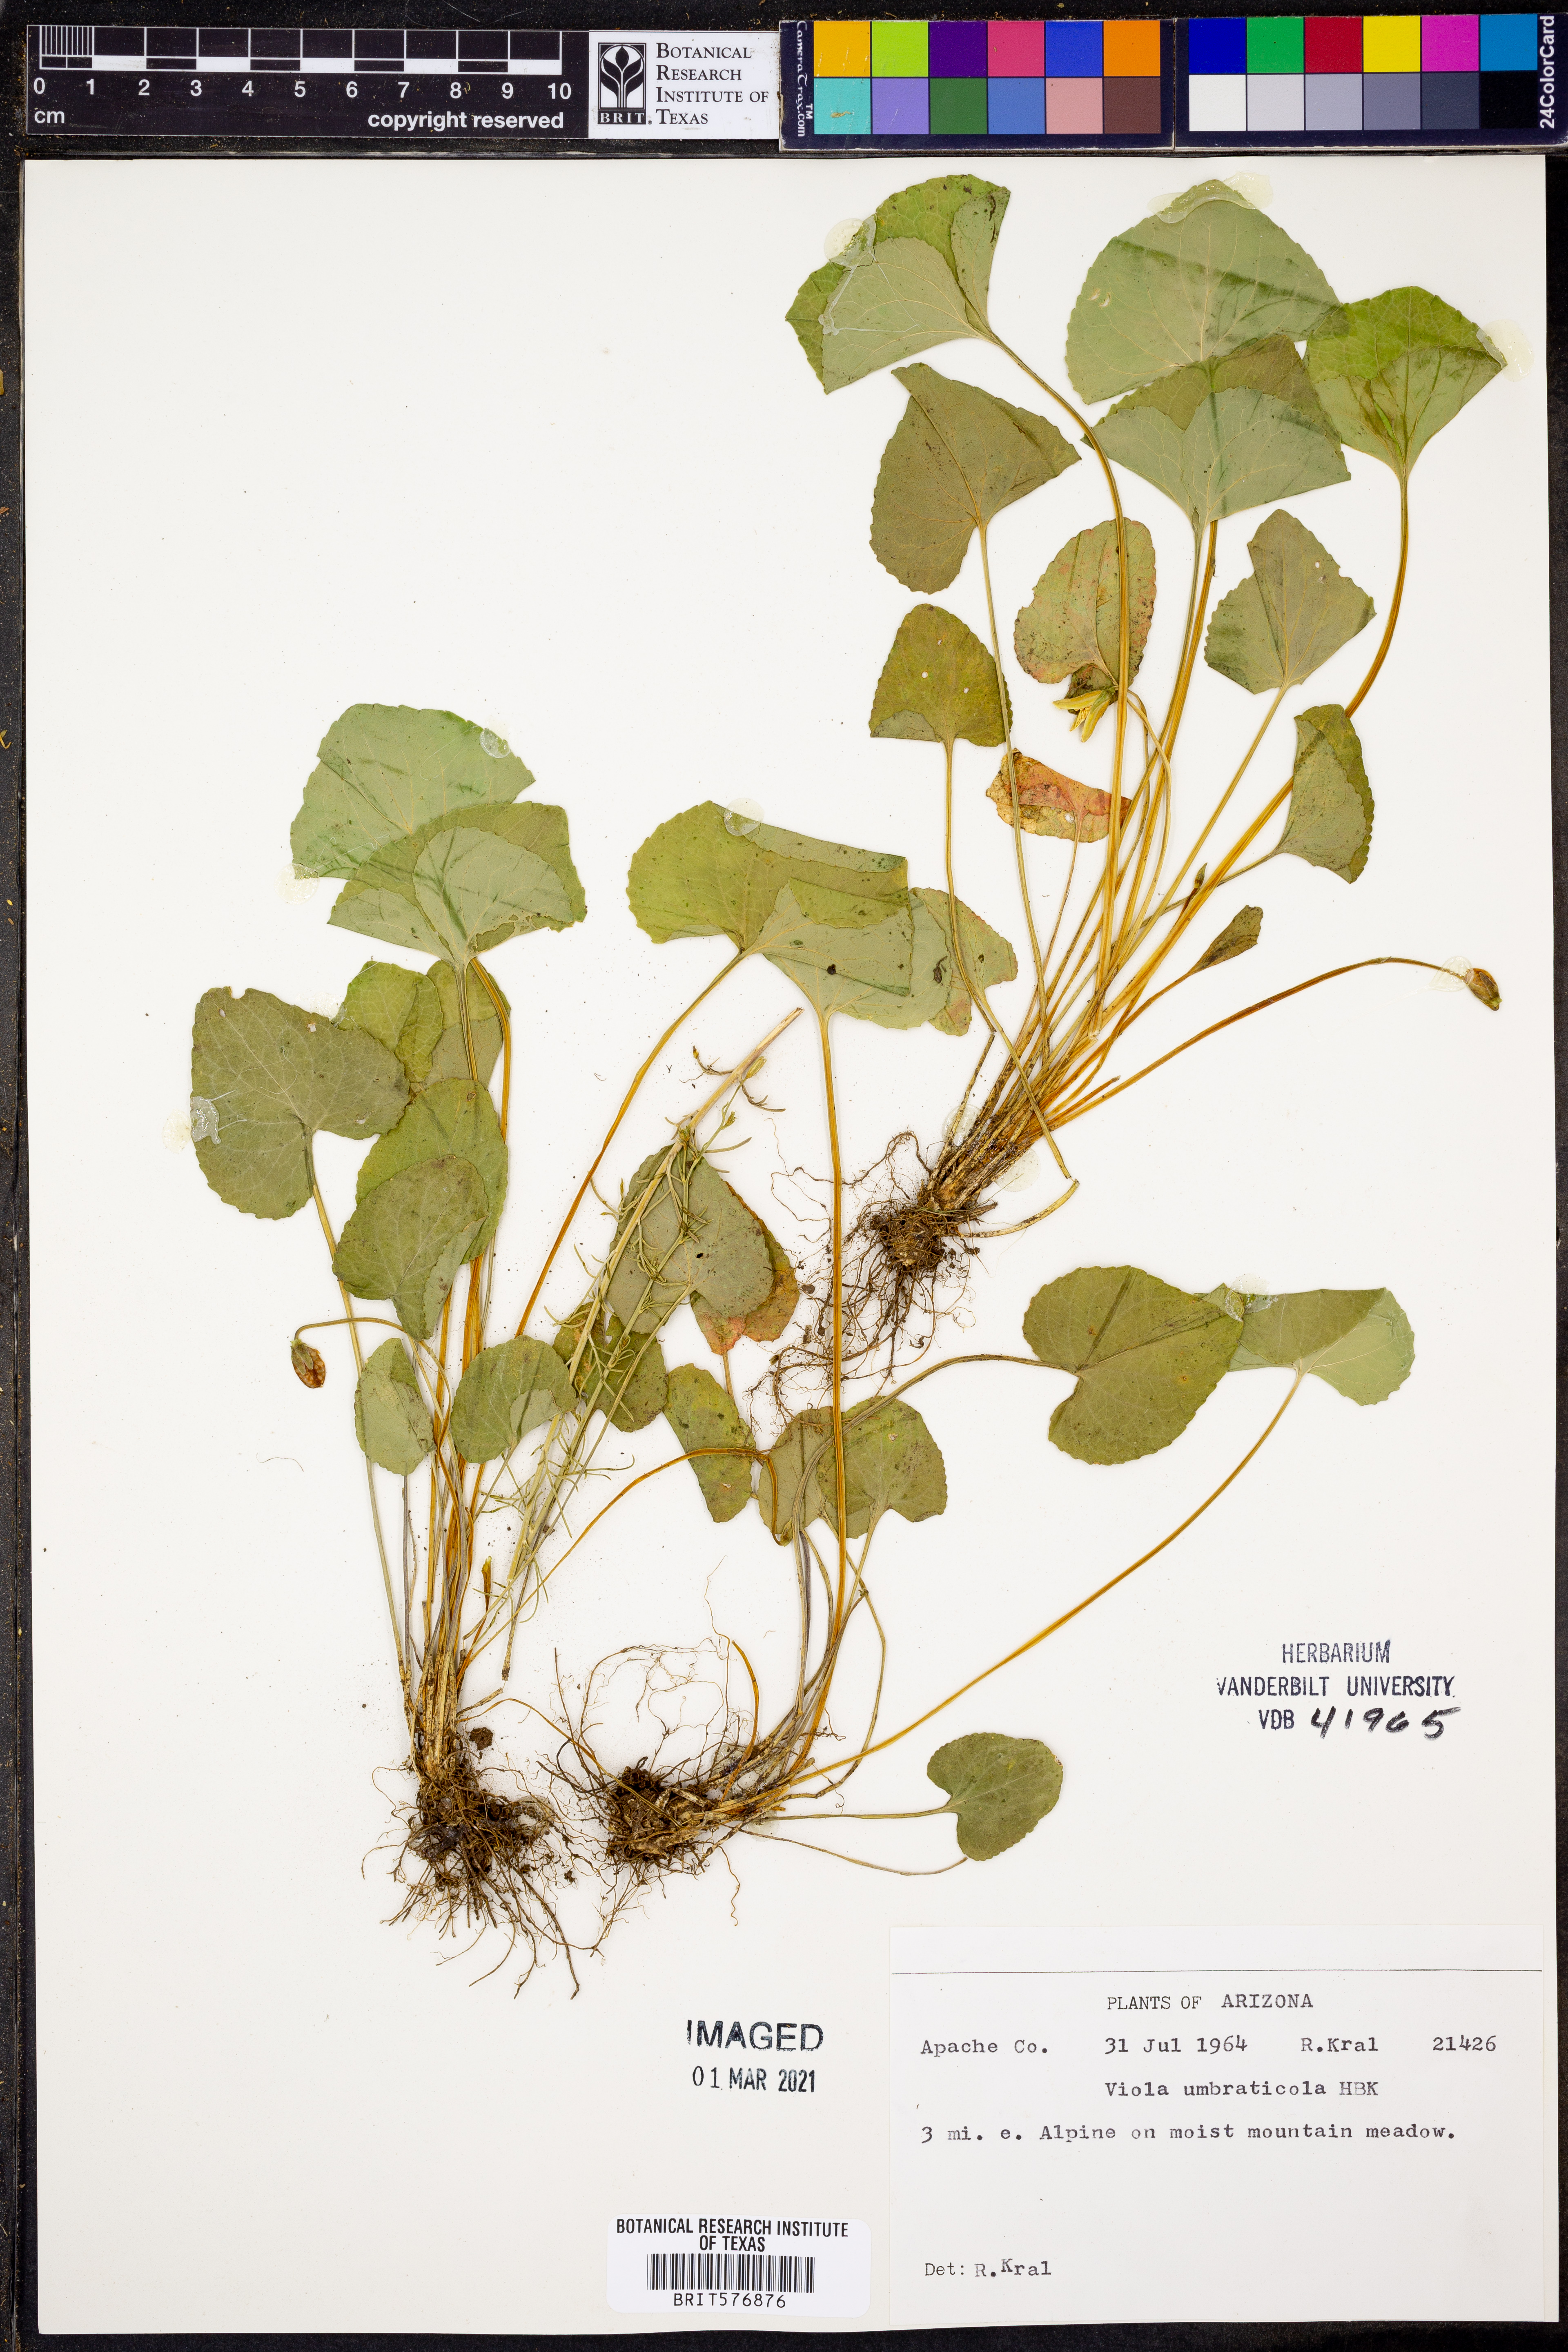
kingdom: Plantae
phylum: Tracheophyta
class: Magnoliopsida
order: Malpighiales
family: Violaceae
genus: Viola
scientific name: Viola umbraticola
